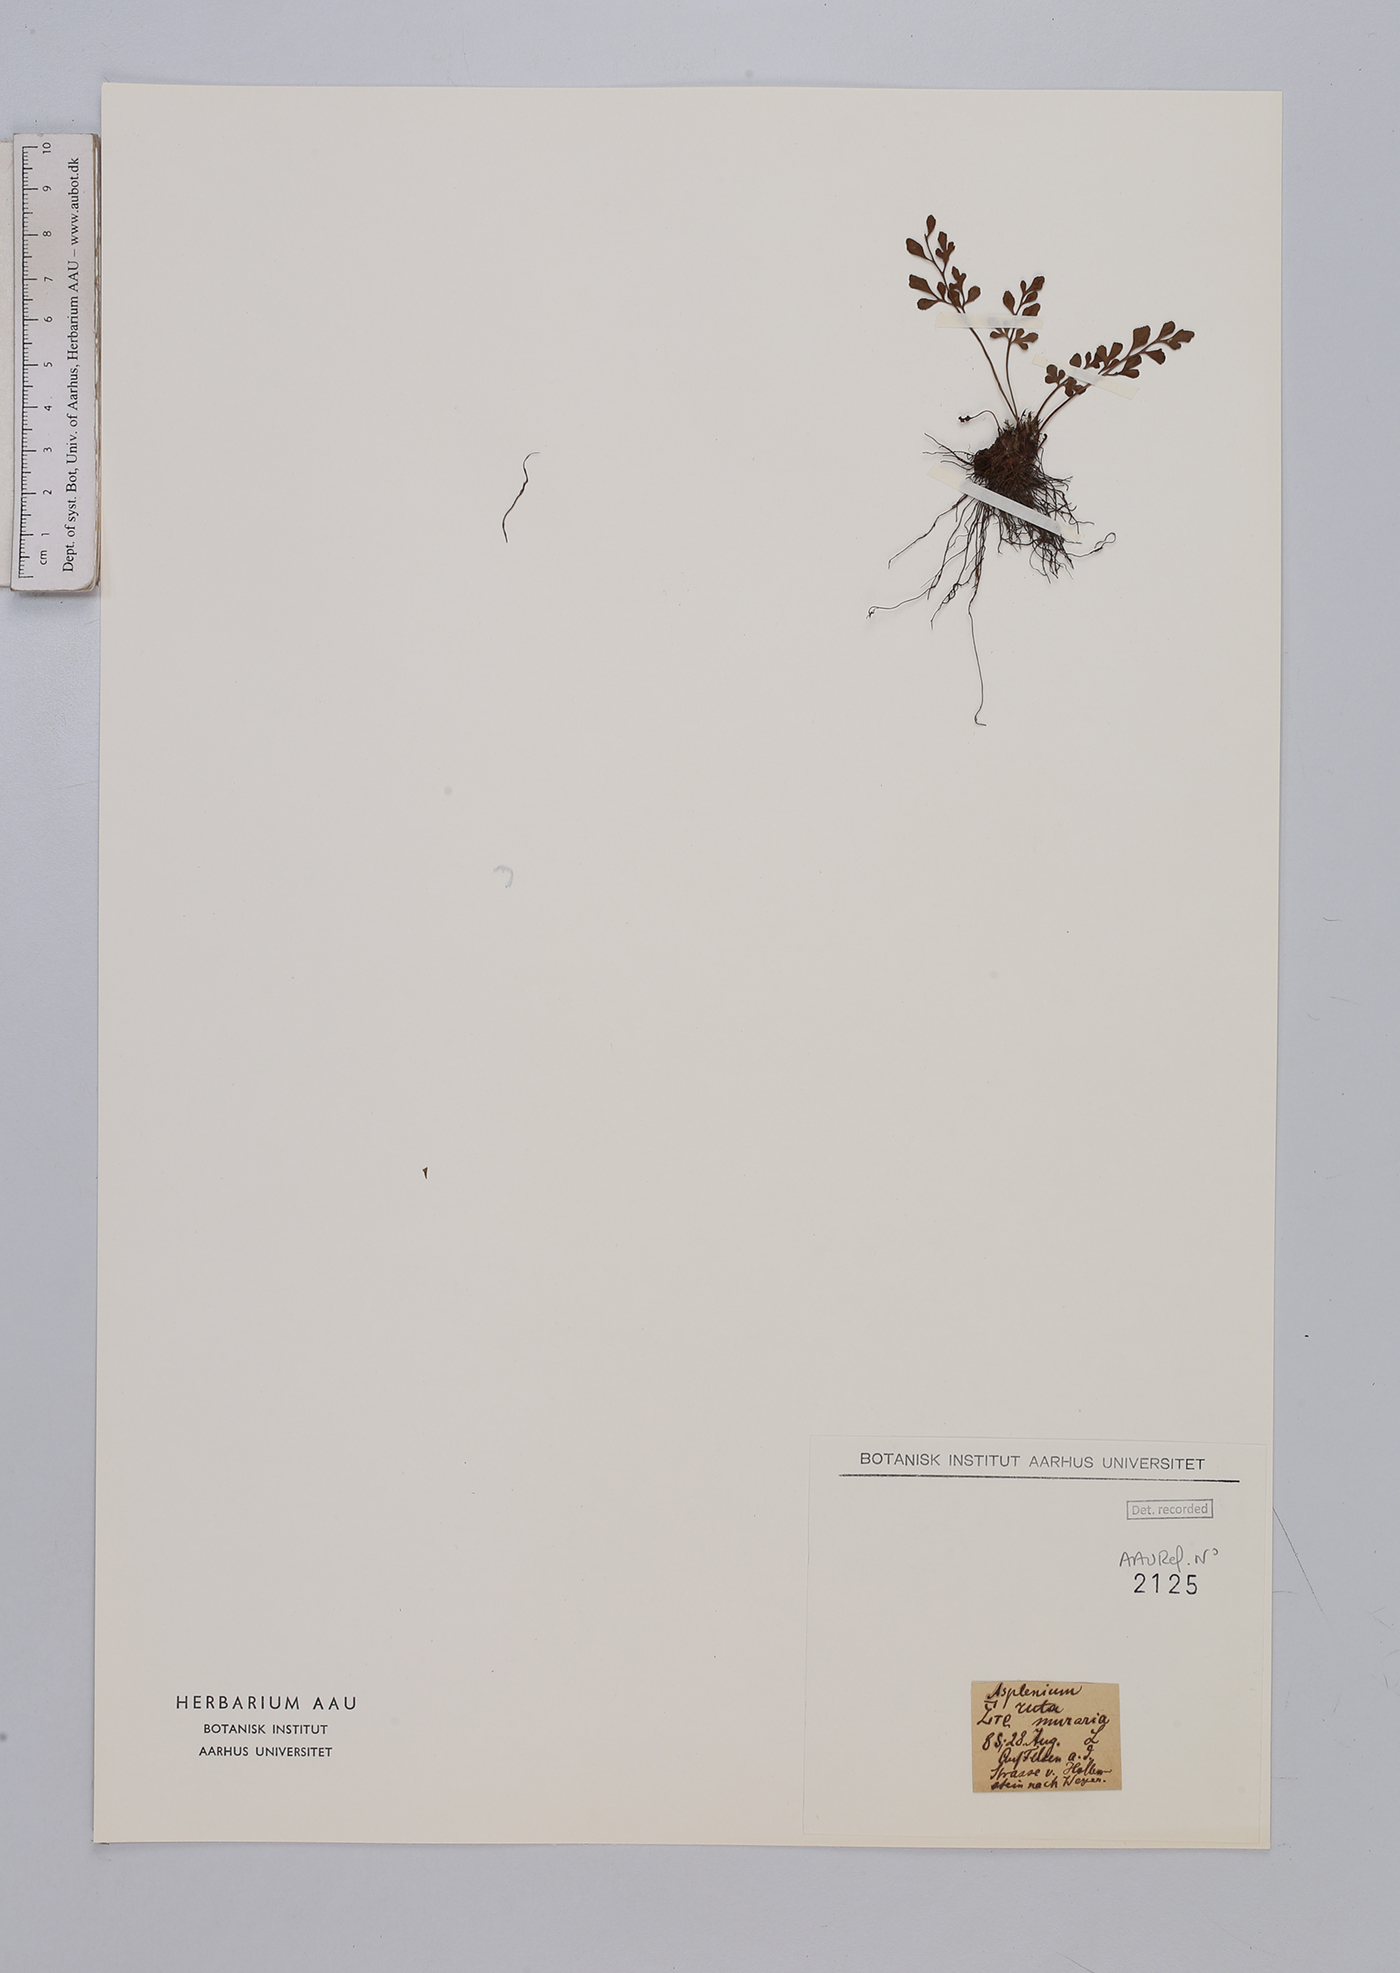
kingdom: Plantae
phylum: Tracheophyta
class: Polypodiopsida
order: Polypodiales
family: Aspleniaceae
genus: Asplenium
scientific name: Asplenium ruta-muraria
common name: Wall-rue
